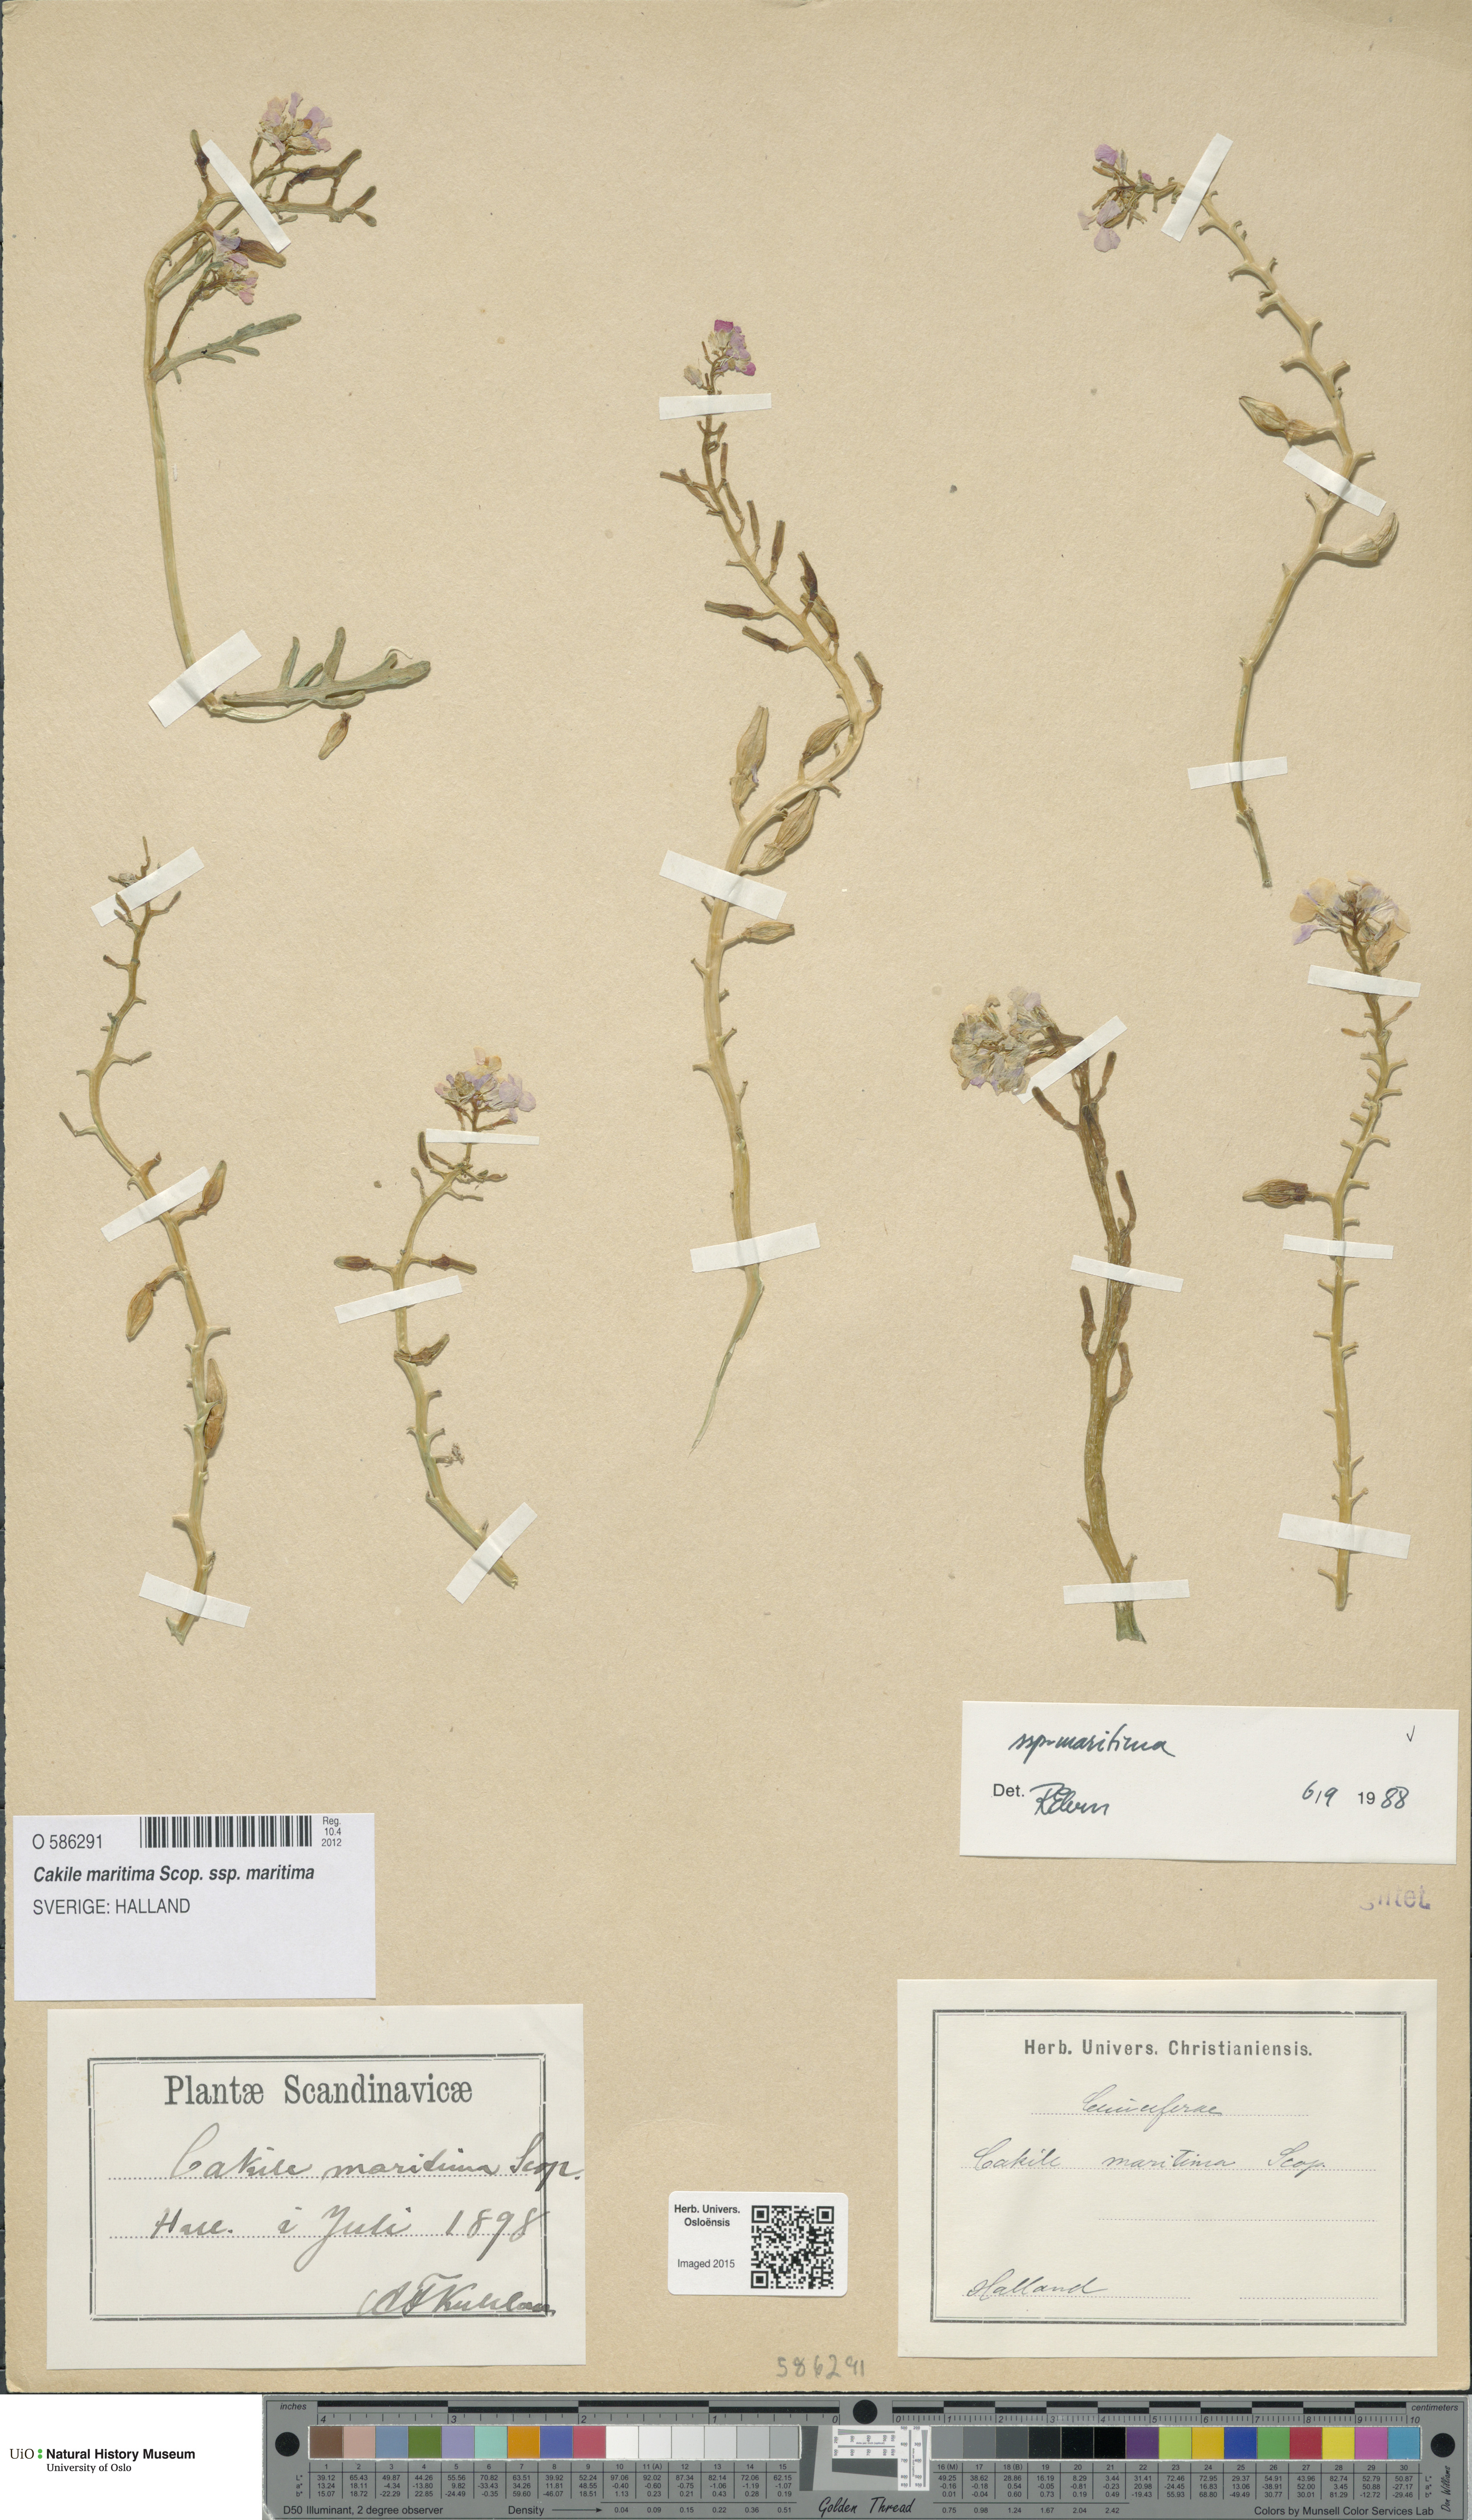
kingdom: Plantae
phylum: Tracheophyta
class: Magnoliopsida
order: Brassicales
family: Brassicaceae
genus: Cakile
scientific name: Cakile maritima
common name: Sea rocket
